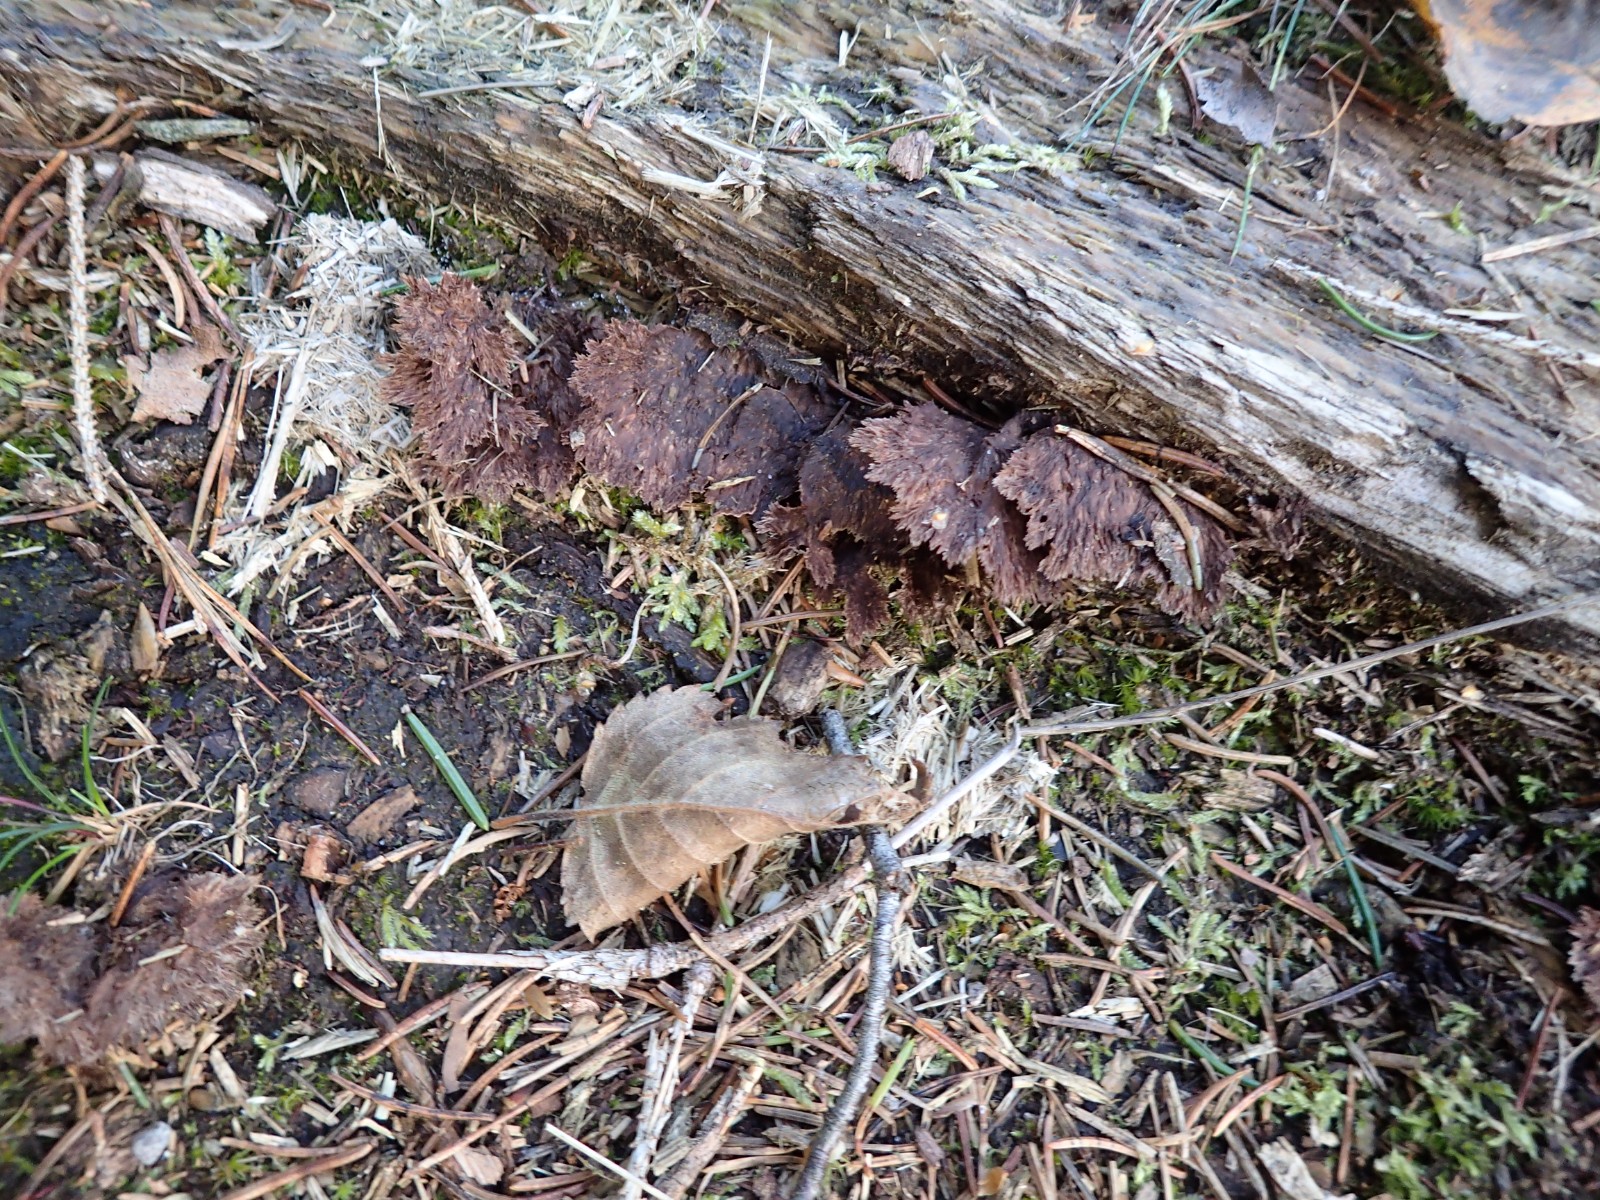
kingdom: Fungi
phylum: Basidiomycota
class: Agaricomycetes
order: Thelephorales
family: Thelephoraceae
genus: Thelephora
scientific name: Thelephora terrestris
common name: fliget frynsesvamp
